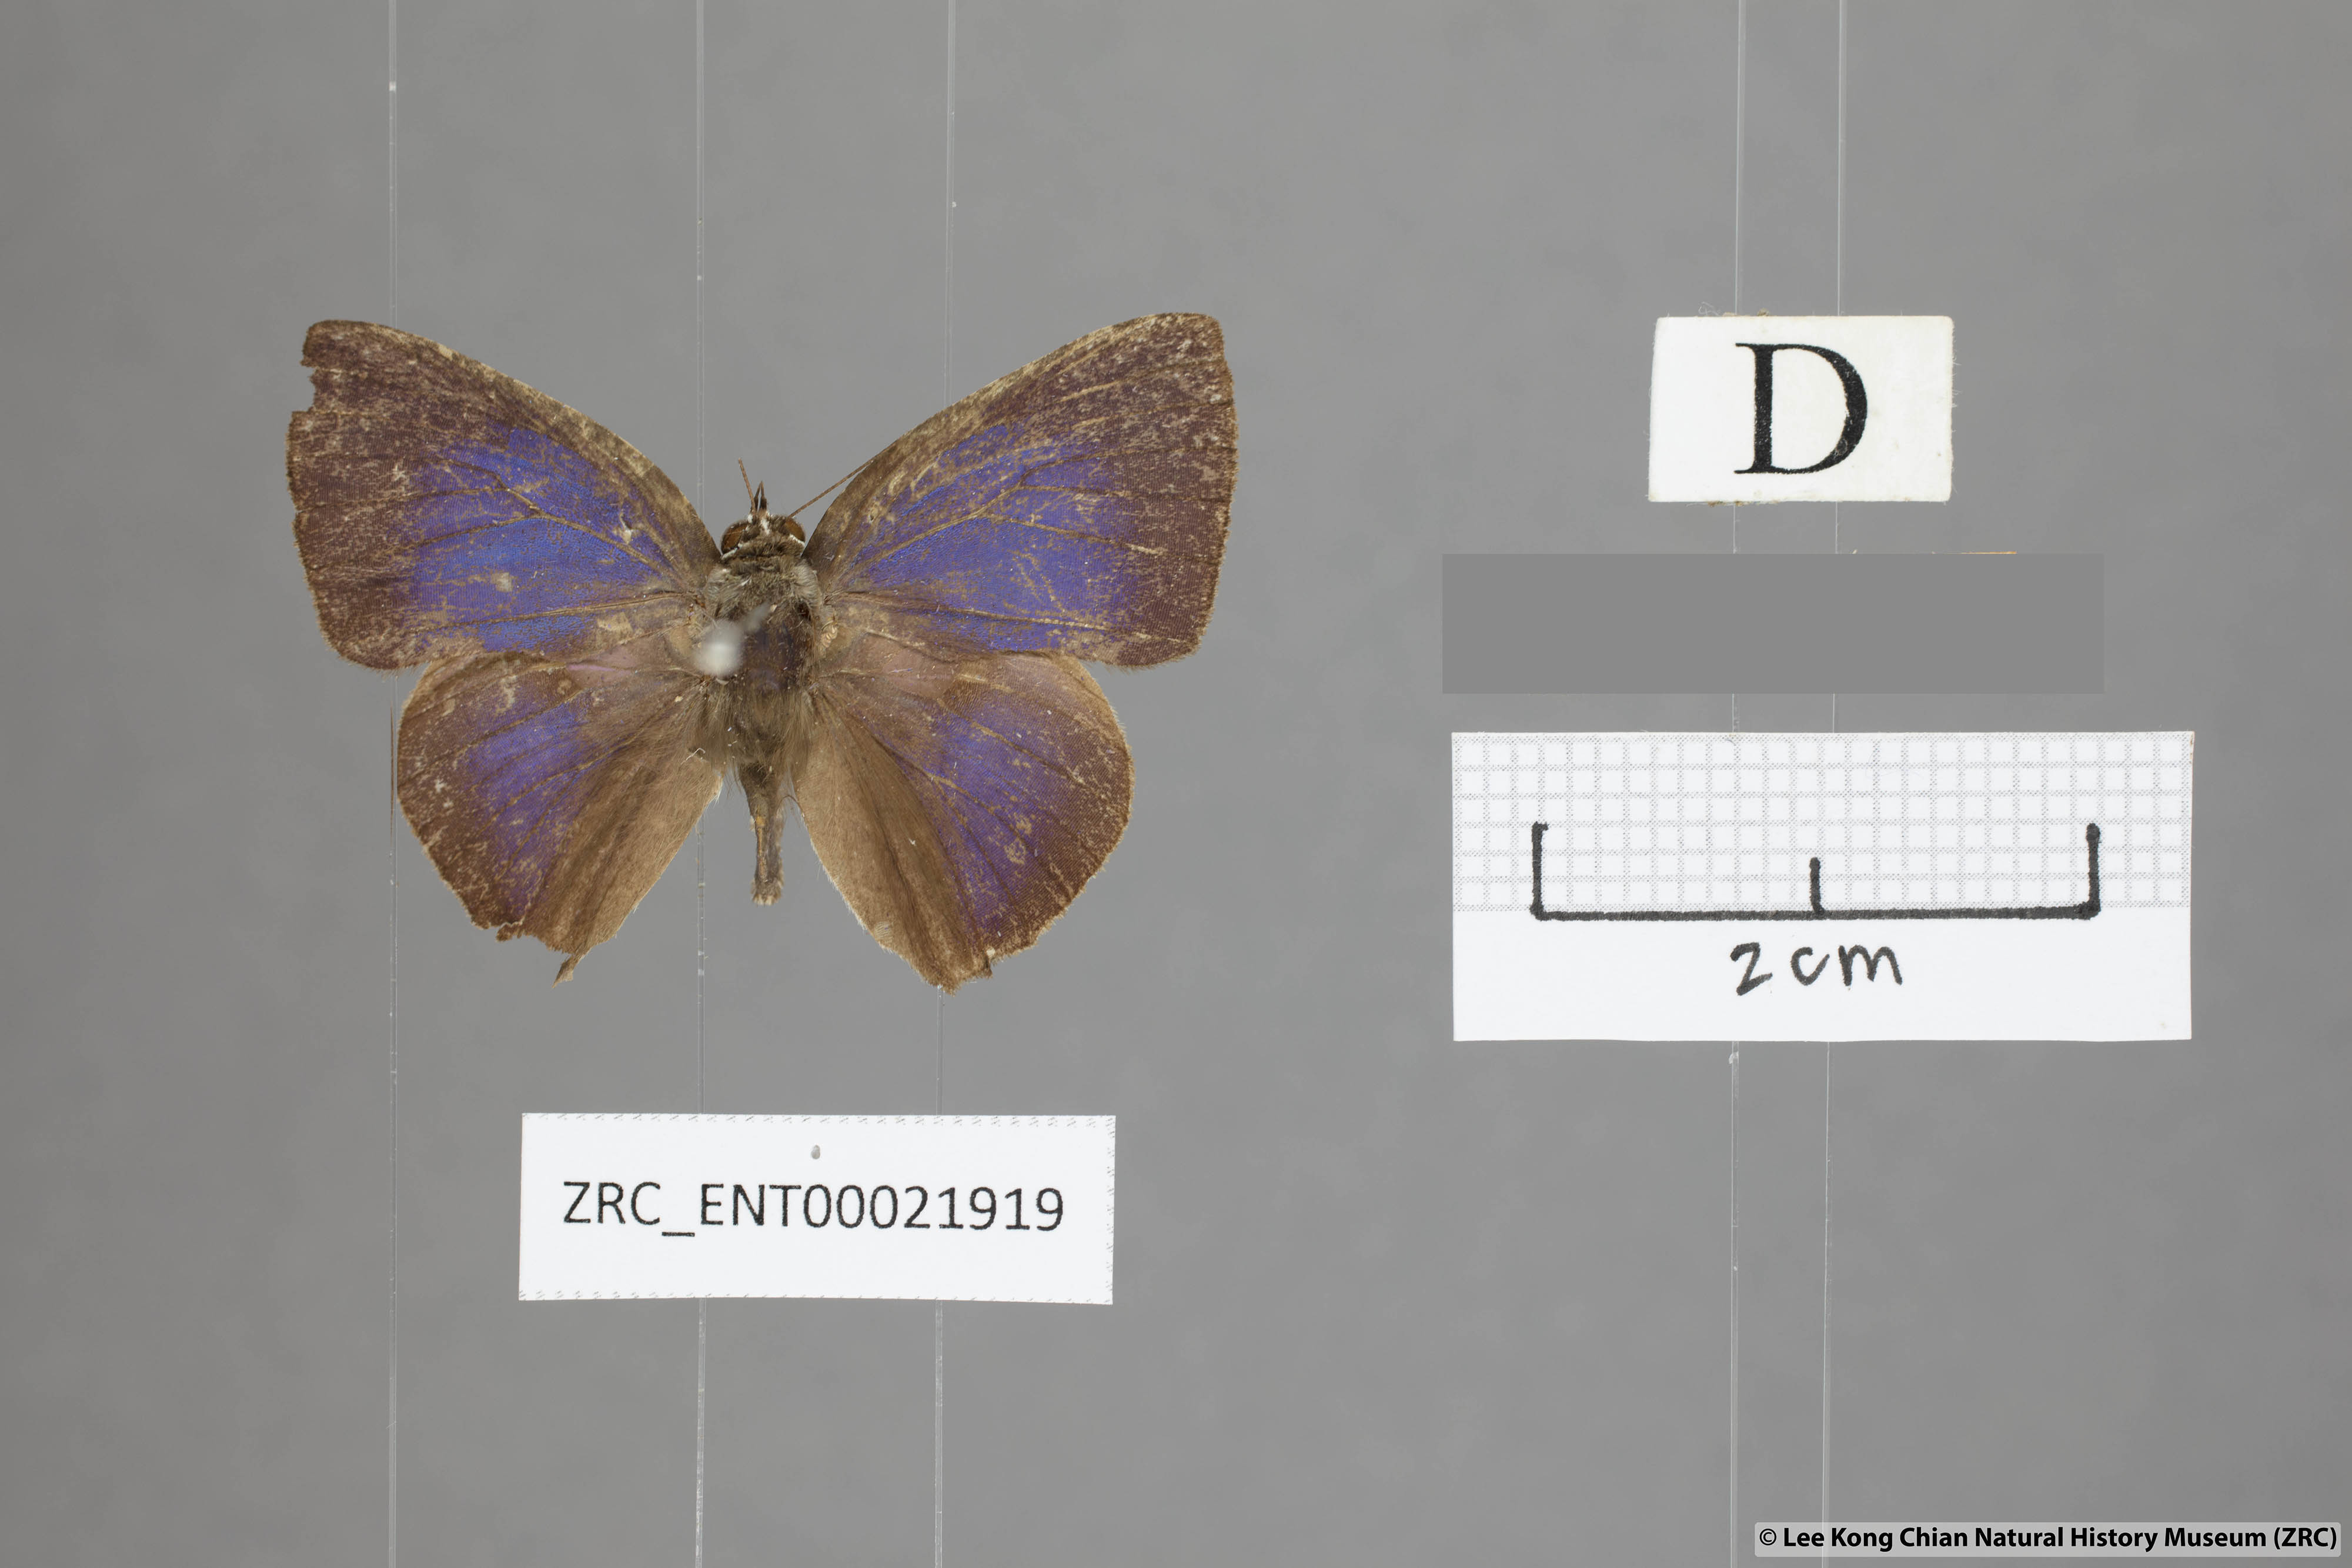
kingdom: Animalia
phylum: Arthropoda
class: Insecta
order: Lepidoptera
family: Lycaenidae
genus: Deudorix
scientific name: Deudorix
